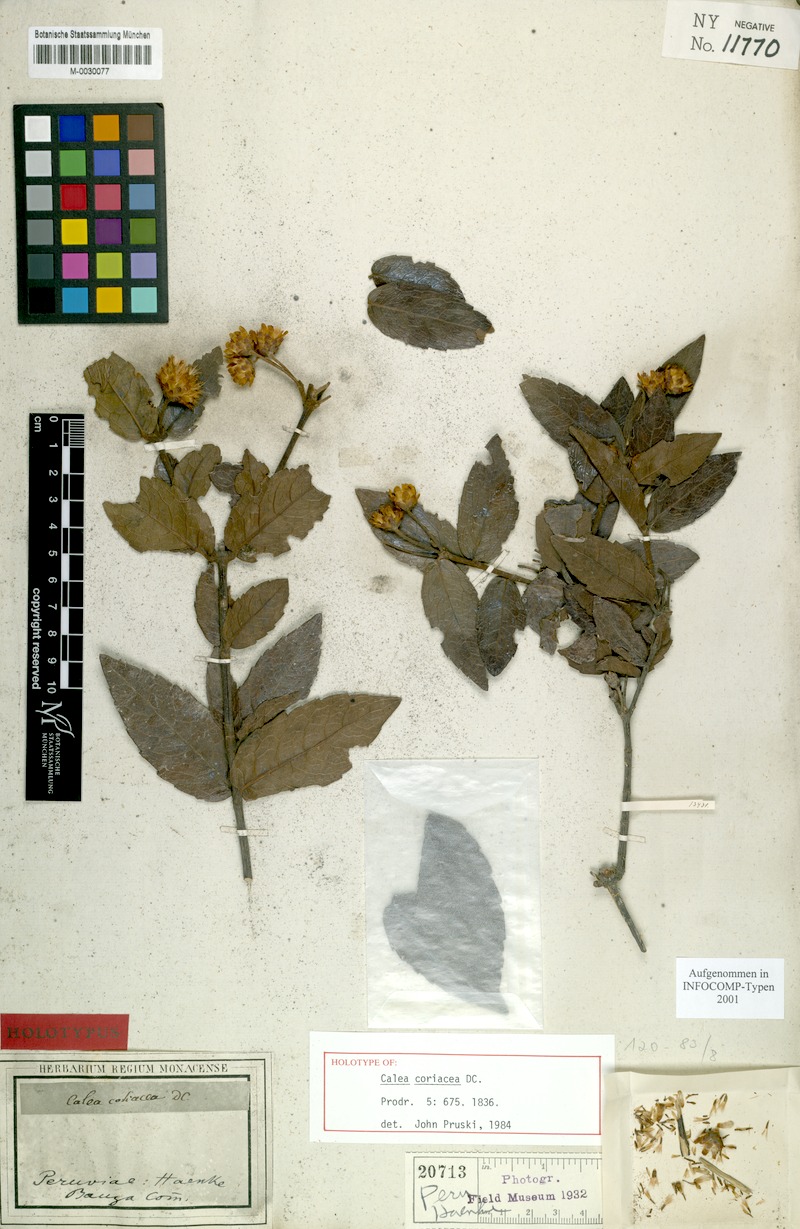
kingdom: Plantae
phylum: Tracheophyta
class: Magnoliopsida
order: Asterales
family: Asteraceae
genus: Calea
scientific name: Calea coriacea
